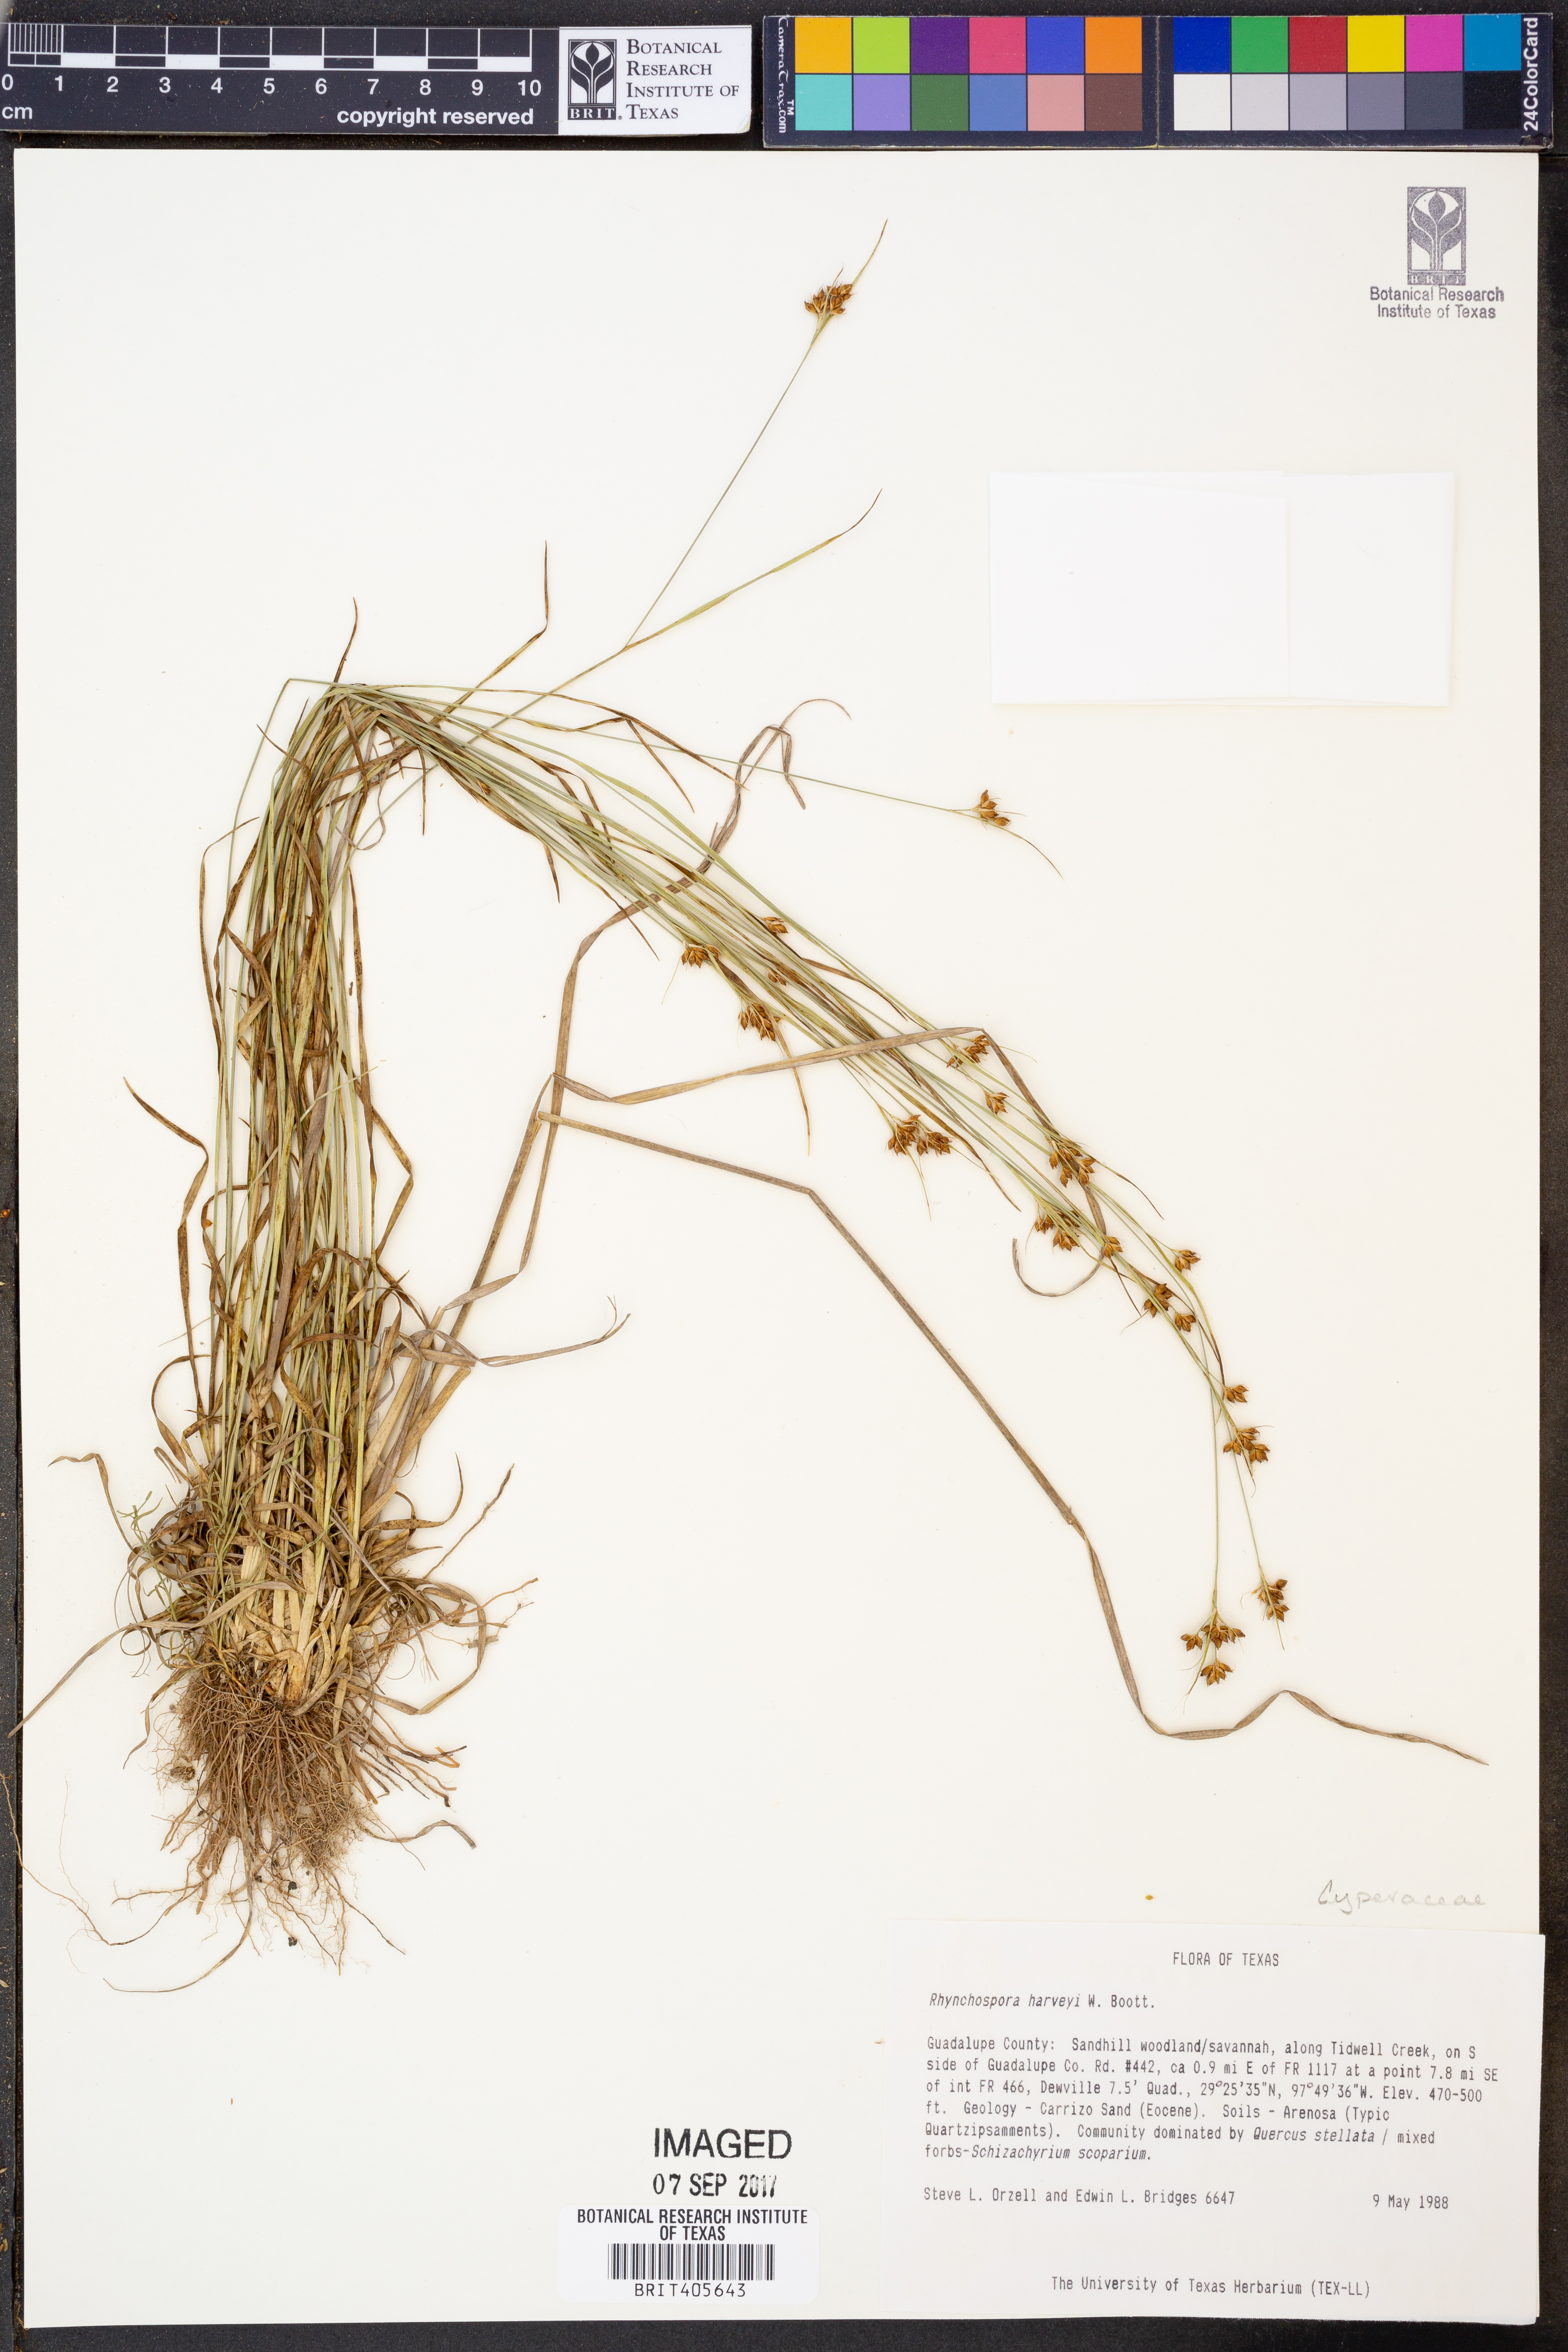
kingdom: Plantae
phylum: Tracheophyta
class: Liliopsida
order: Poales
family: Cyperaceae
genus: Rhynchospora
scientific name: Rhynchospora harveyi
